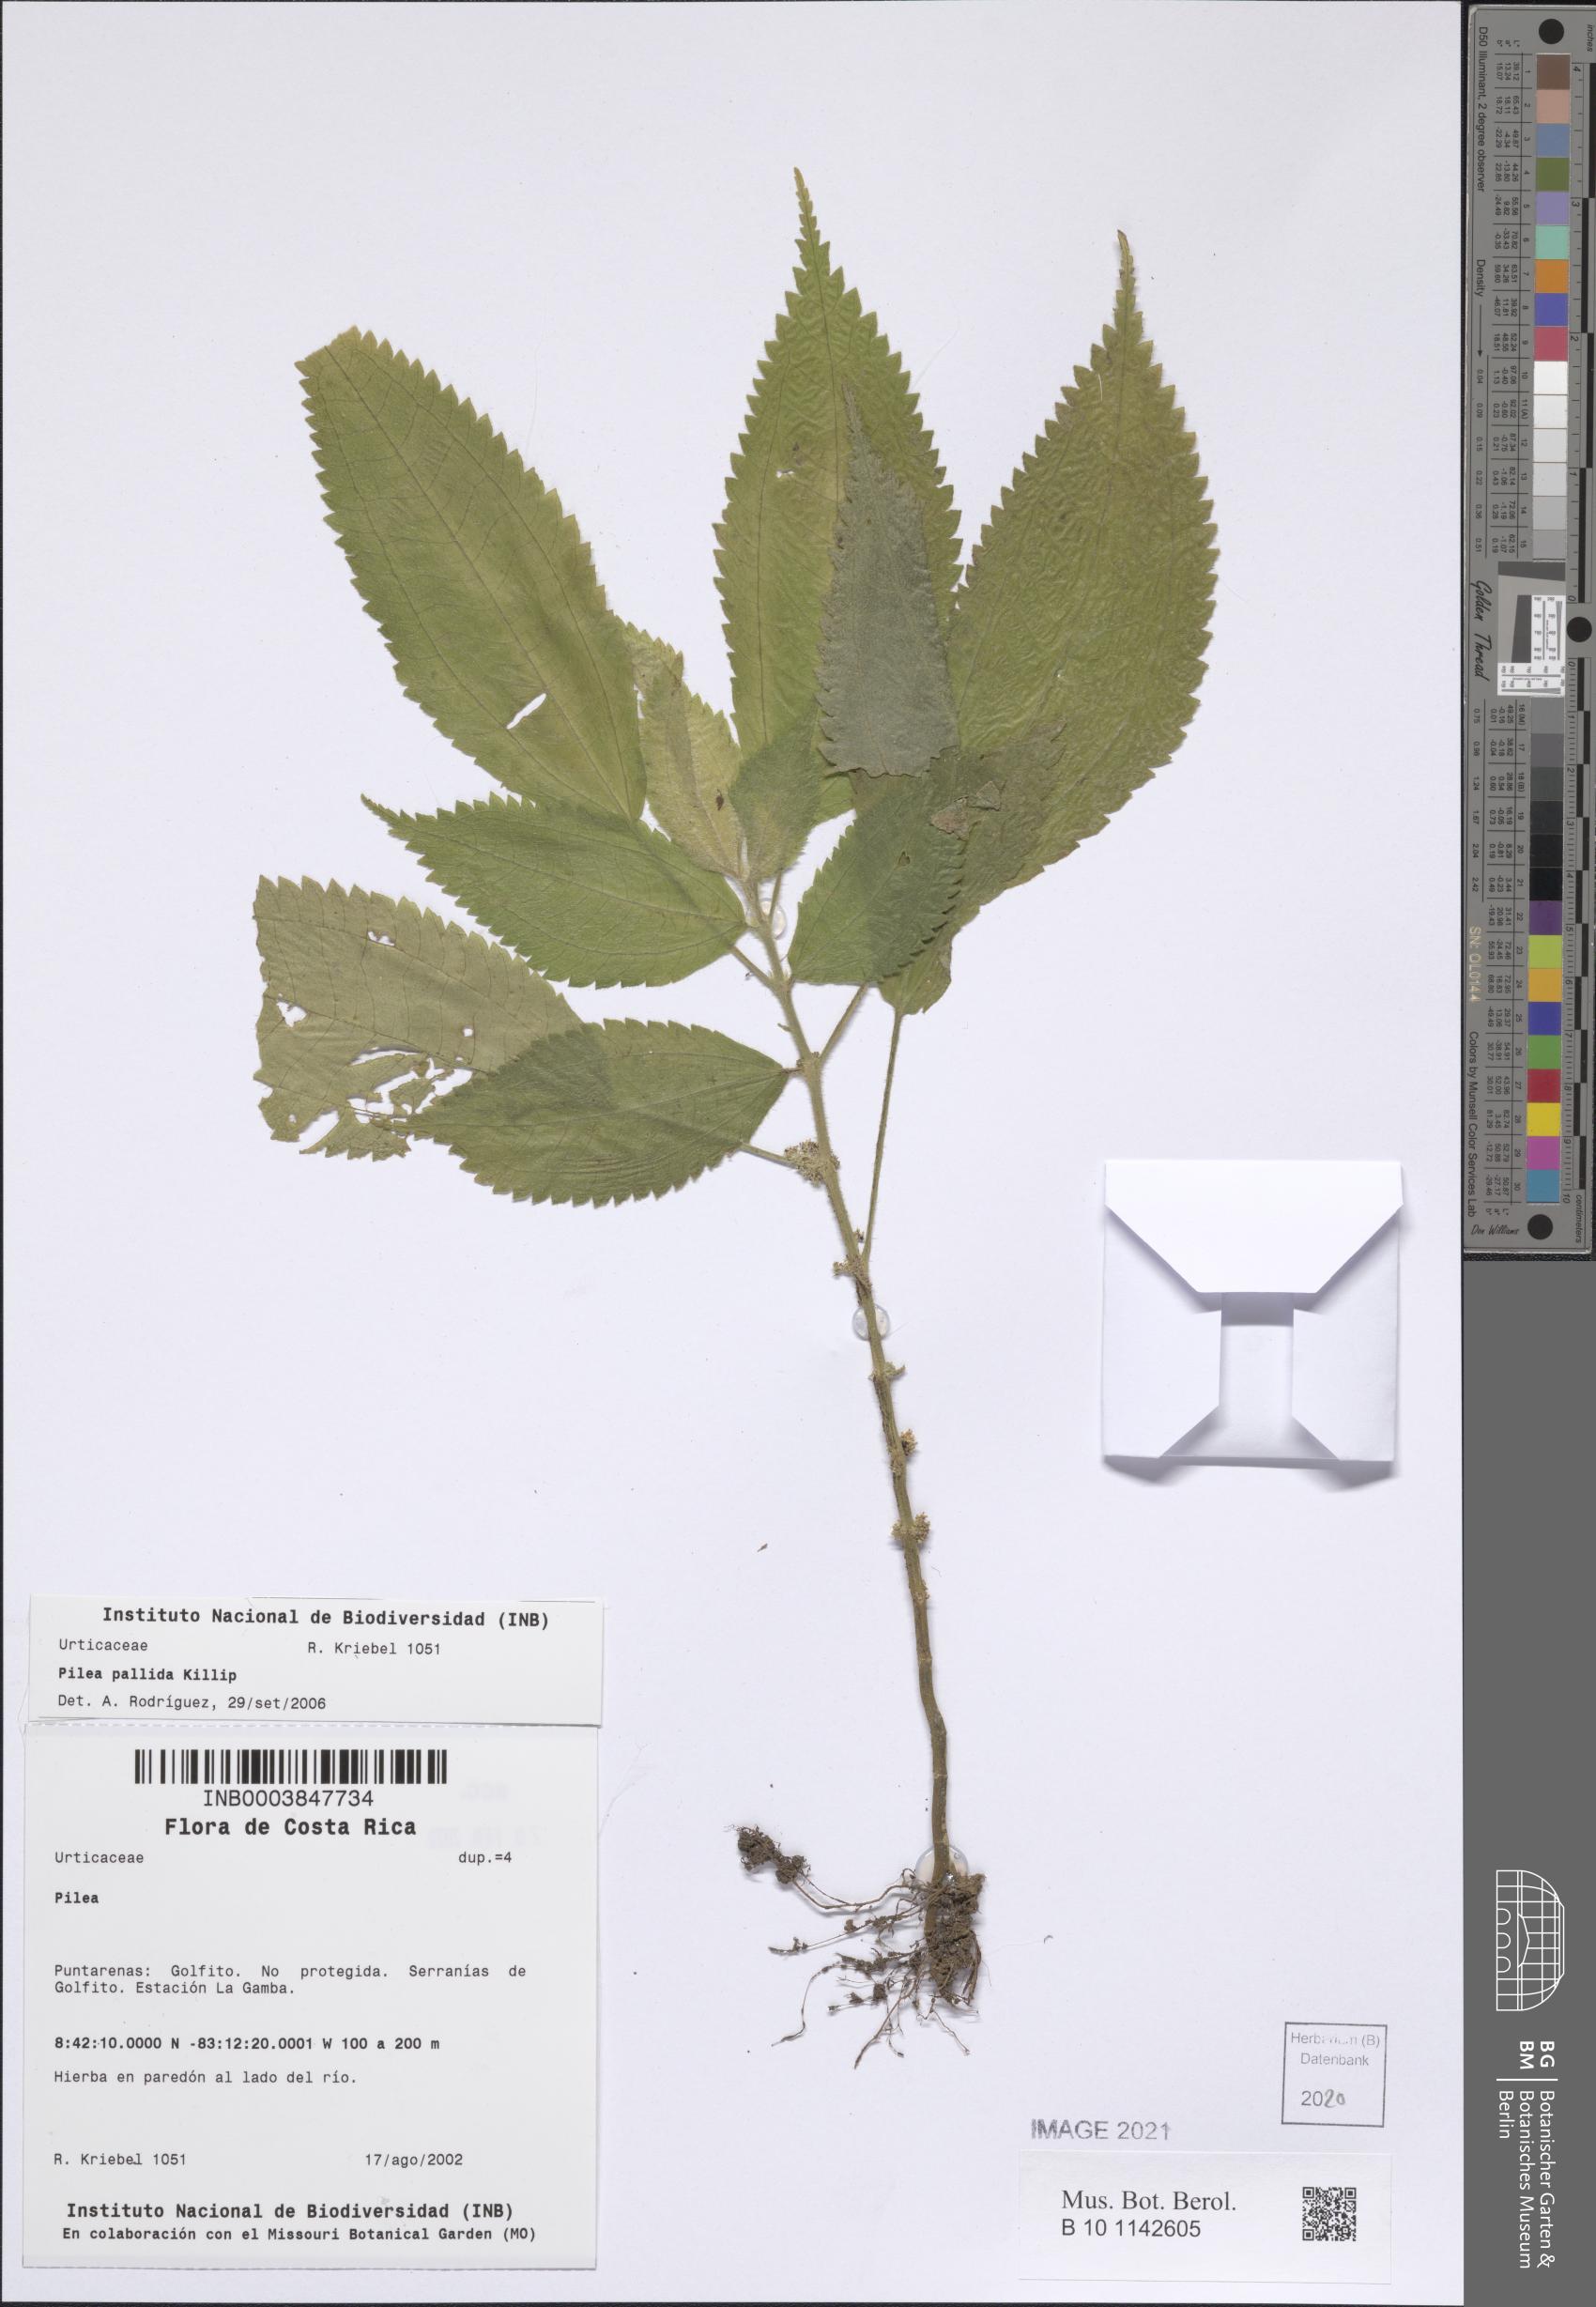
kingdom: Plantae
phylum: Tracheophyta
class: Magnoliopsida
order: Rosales
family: Urticaceae
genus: Pilea
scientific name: Pilea pallida
